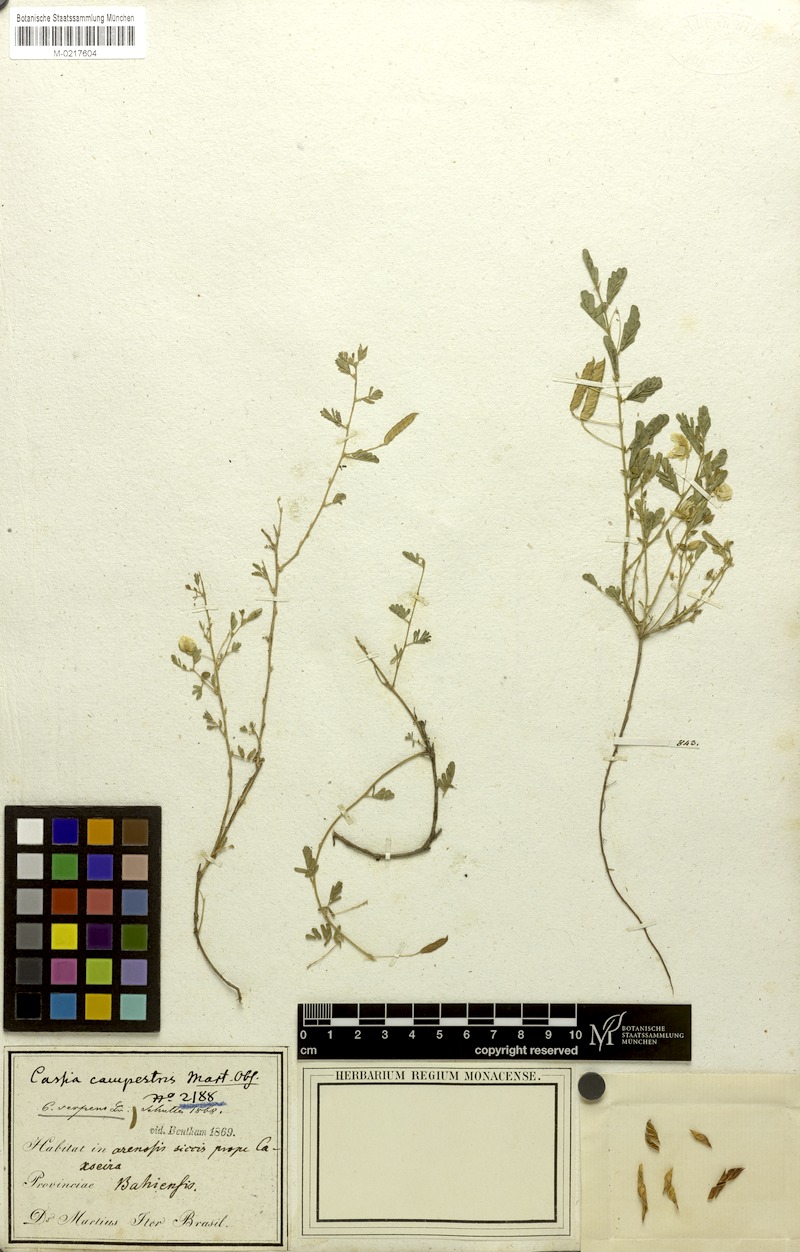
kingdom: Plantae
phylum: Tracheophyta
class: Magnoliopsida
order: Fabales
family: Fabaceae
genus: Chamaecrista
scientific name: Chamaecrista serpens
